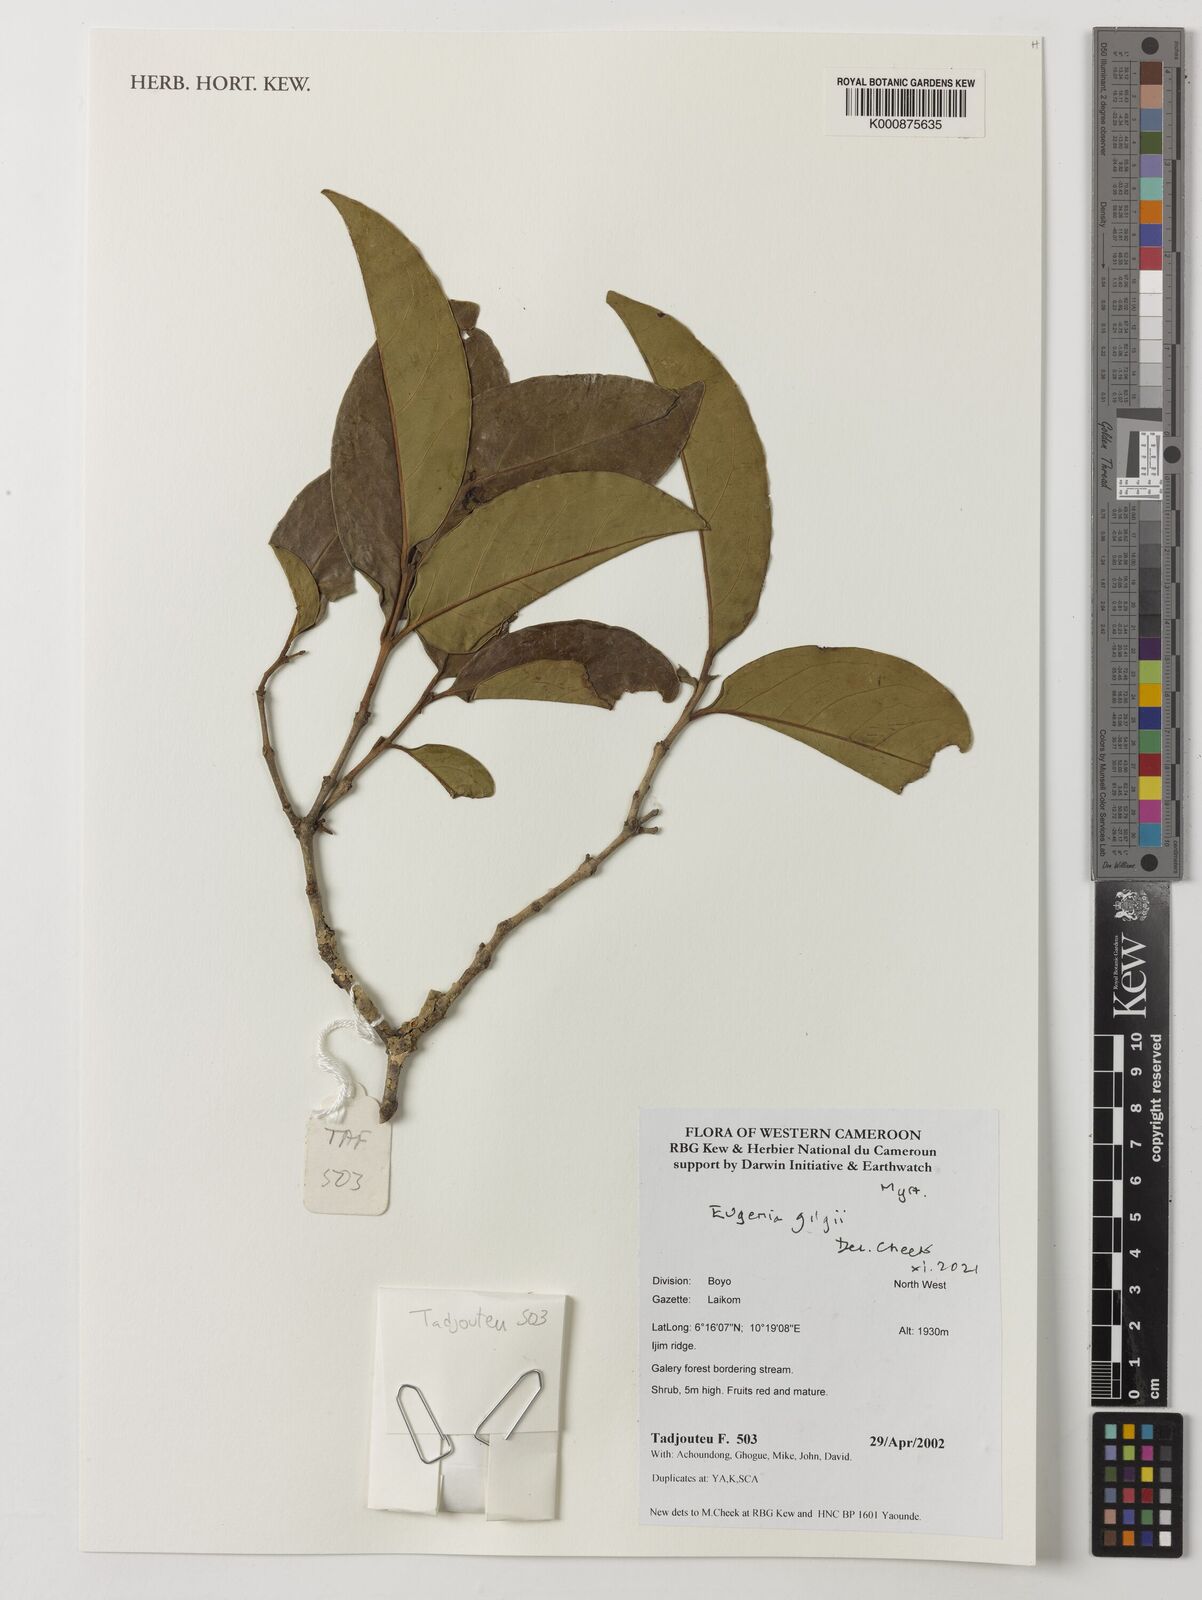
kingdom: Plantae
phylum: Tracheophyta
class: Magnoliopsida
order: Myrtales
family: Myrtaceae
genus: Eugenia
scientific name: Eugenia gilgii
